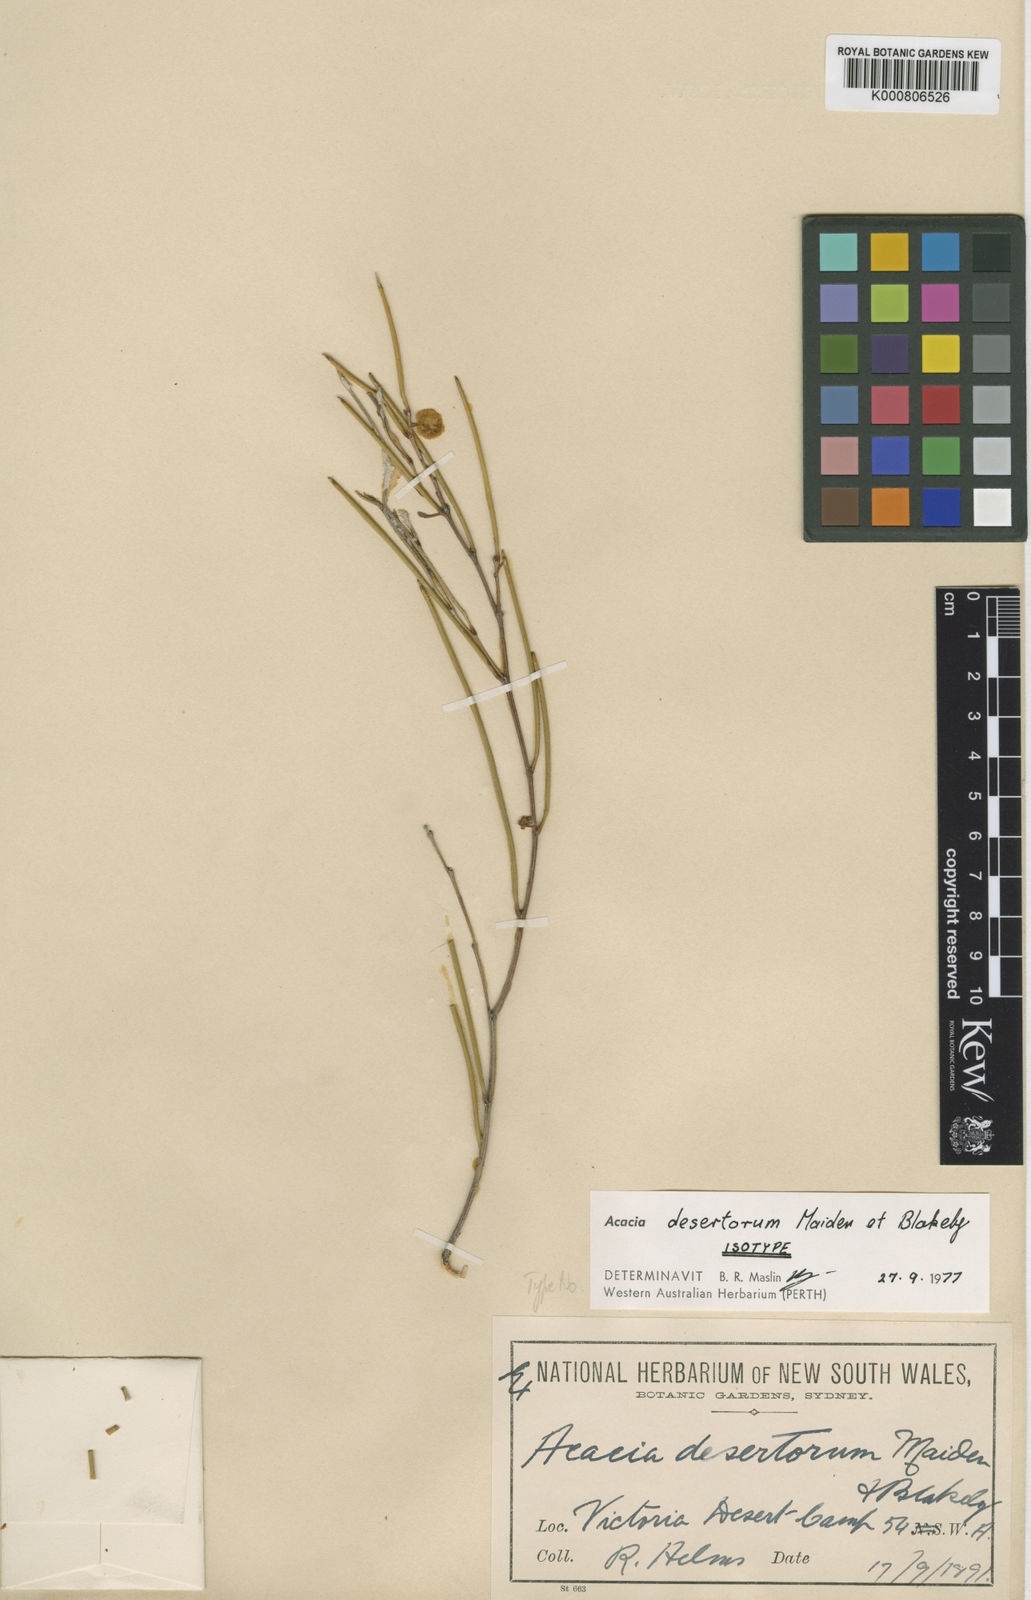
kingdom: Plantae
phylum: Tracheophyta
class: Magnoliopsida
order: Fabales
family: Fabaceae
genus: Acacia
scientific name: Acacia desertorum
